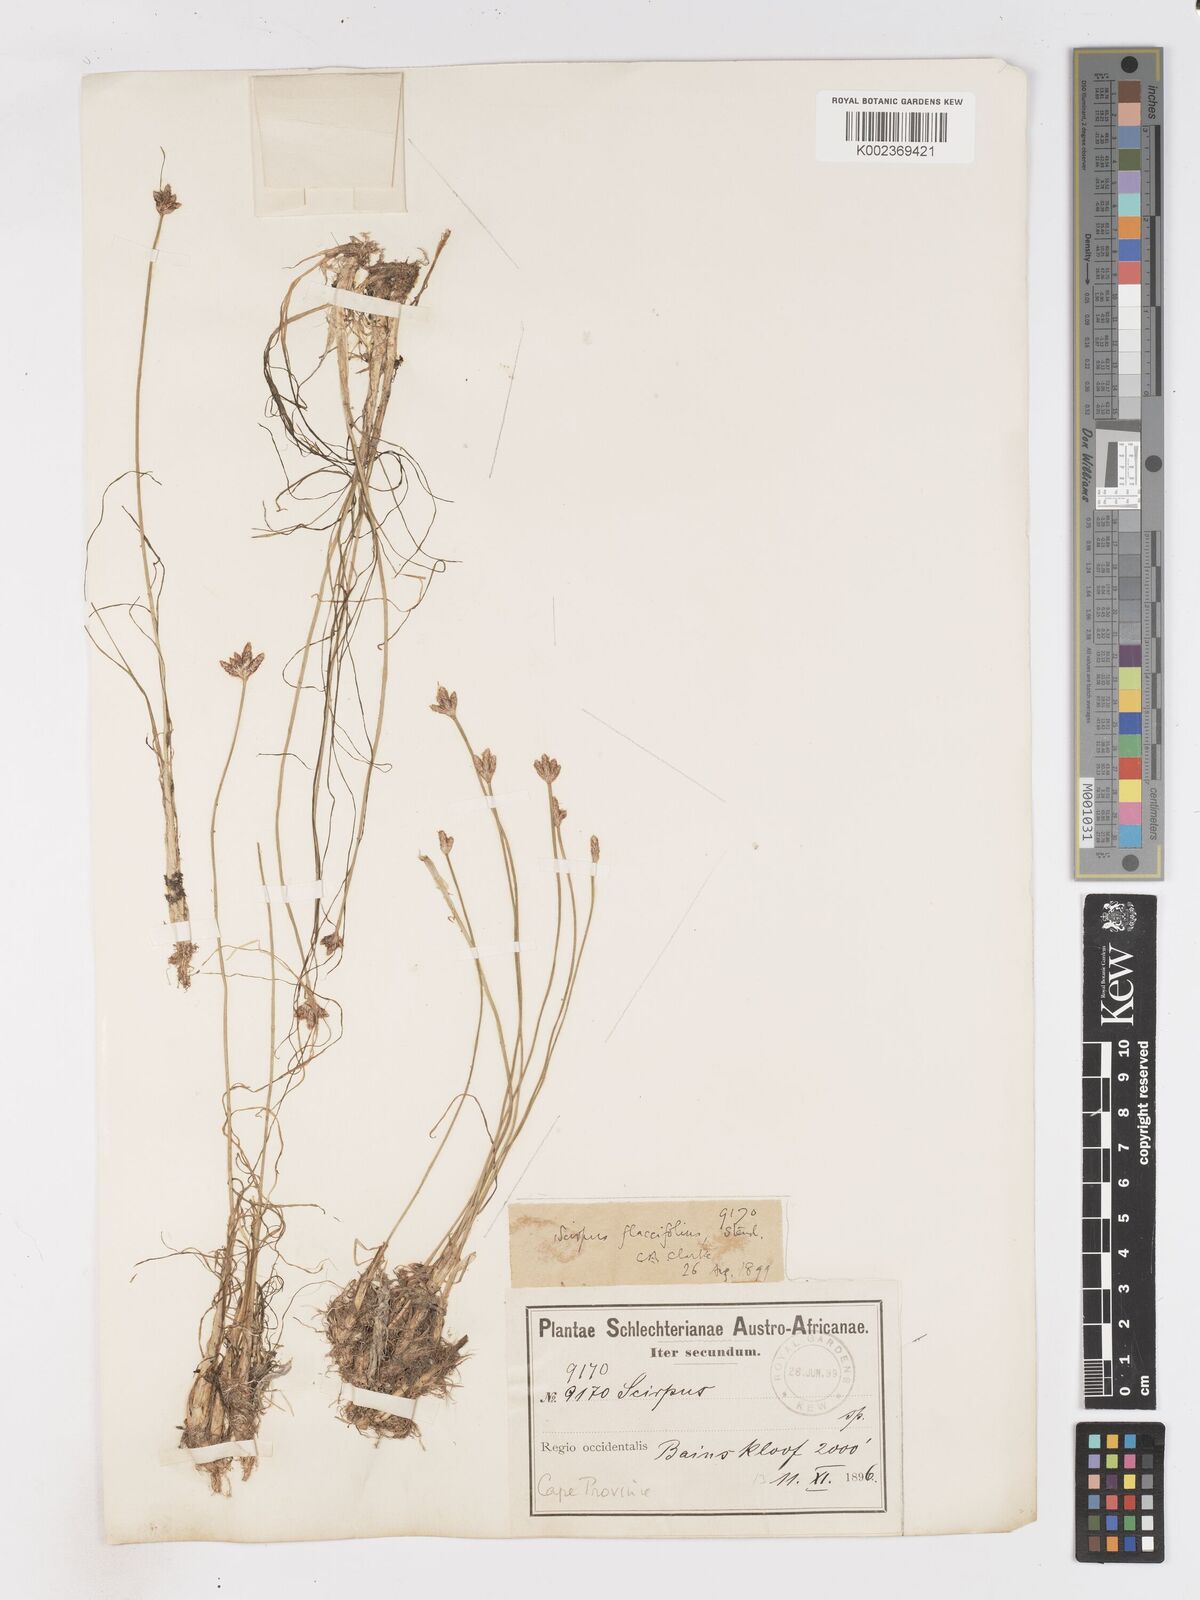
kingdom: Plantae
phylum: Tracheophyta
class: Liliopsida
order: Poales
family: Cyperaceae
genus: Isolepis
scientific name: Isolepis digitata
